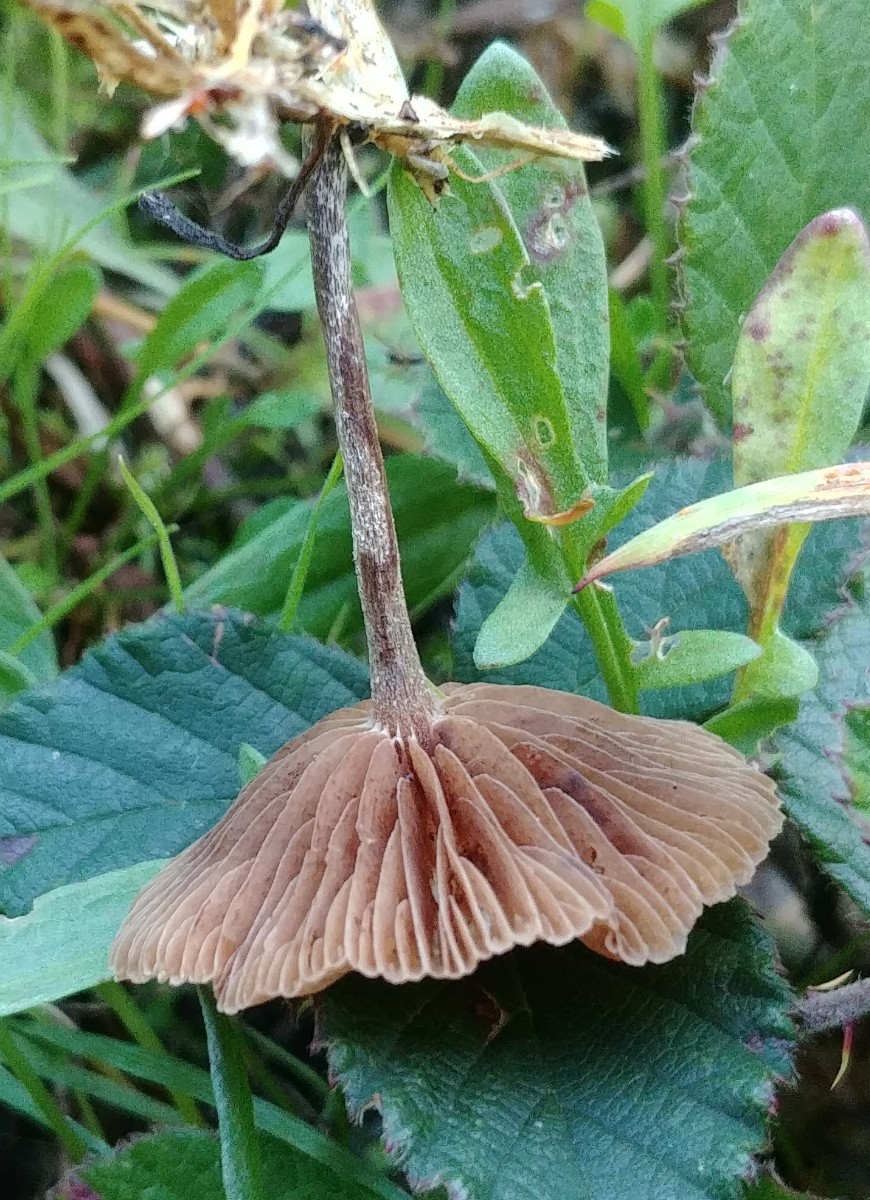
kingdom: Fungi
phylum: Basidiomycota
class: Agaricomycetes
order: Agaricales
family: Strophariaceae
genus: Deconica
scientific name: Deconica
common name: stråhat
